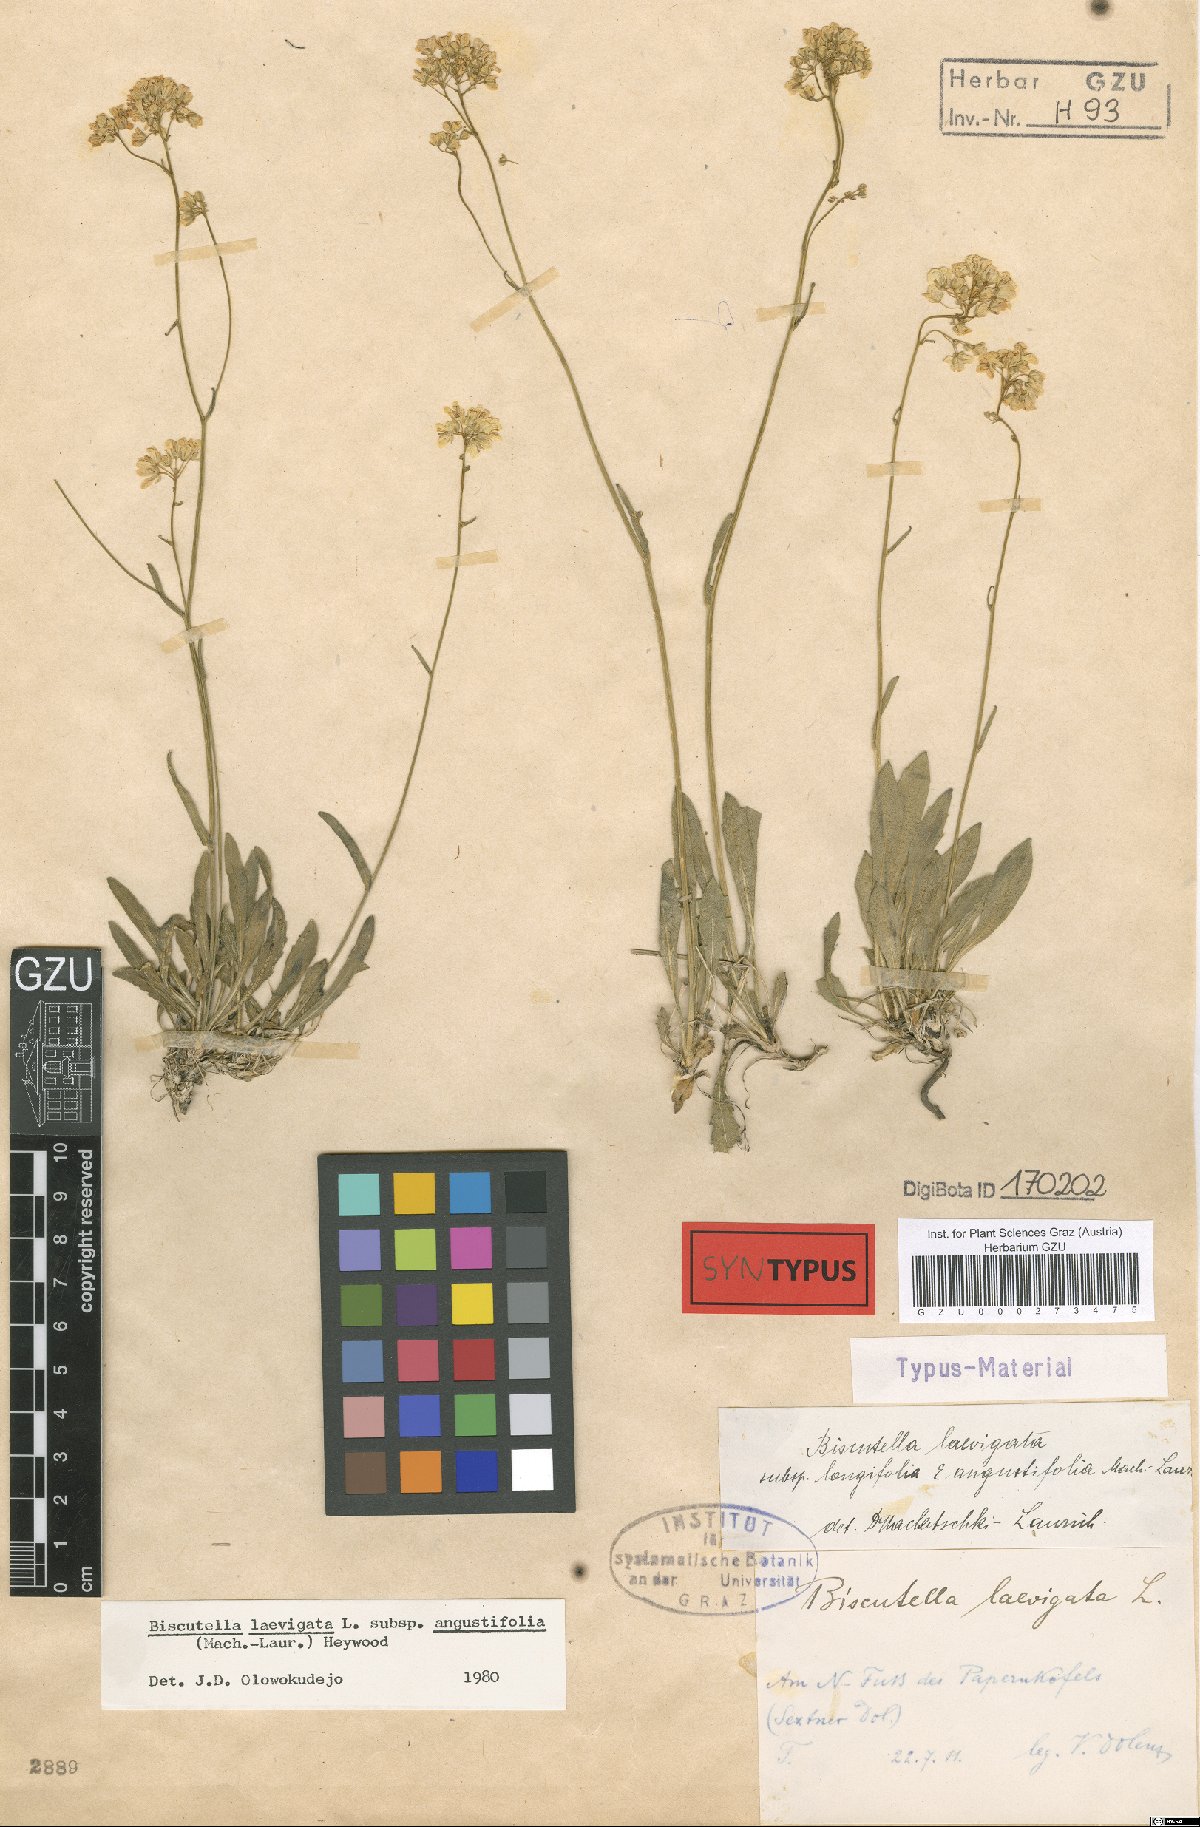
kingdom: Plantae
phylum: Tracheophyta
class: Magnoliopsida
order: Brassicales
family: Brassicaceae
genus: Biscutella
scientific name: Biscutella laevigata
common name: Buckler mustard
